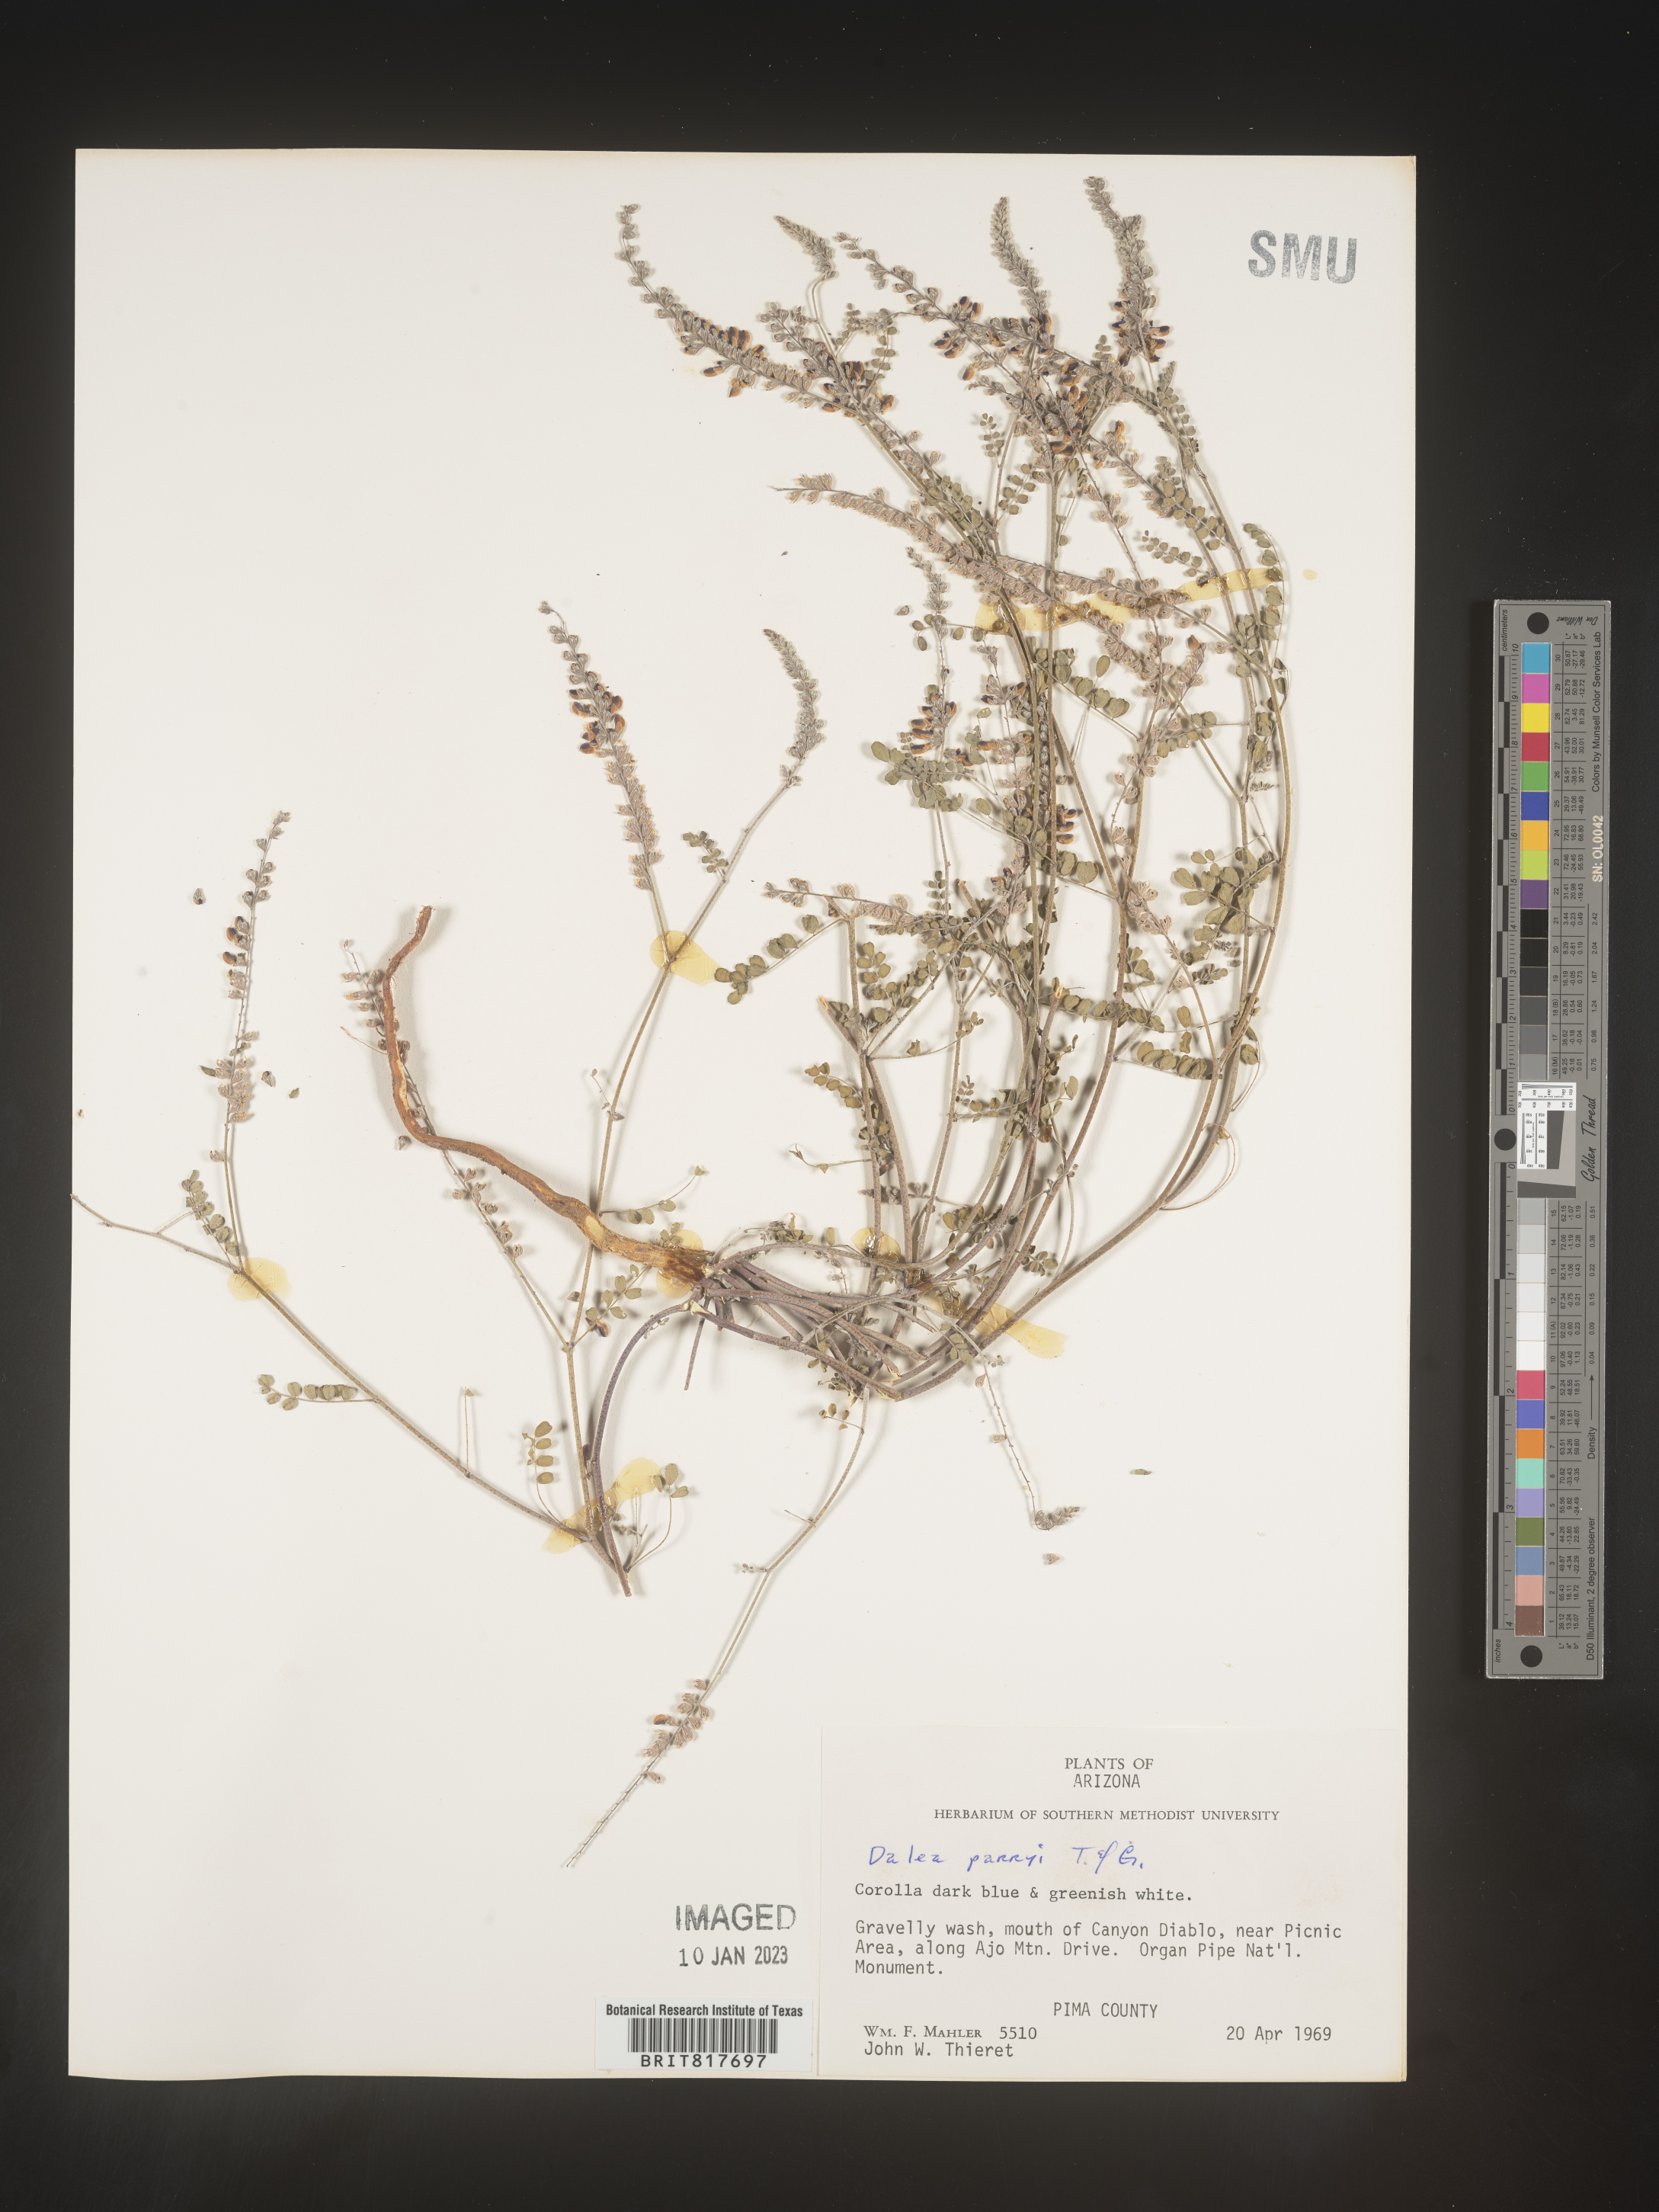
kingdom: Plantae
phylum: Tracheophyta
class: Magnoliopsida
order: Fabales
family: Fabaceae
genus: Marina
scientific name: Marina parryi
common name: Parry's marina
